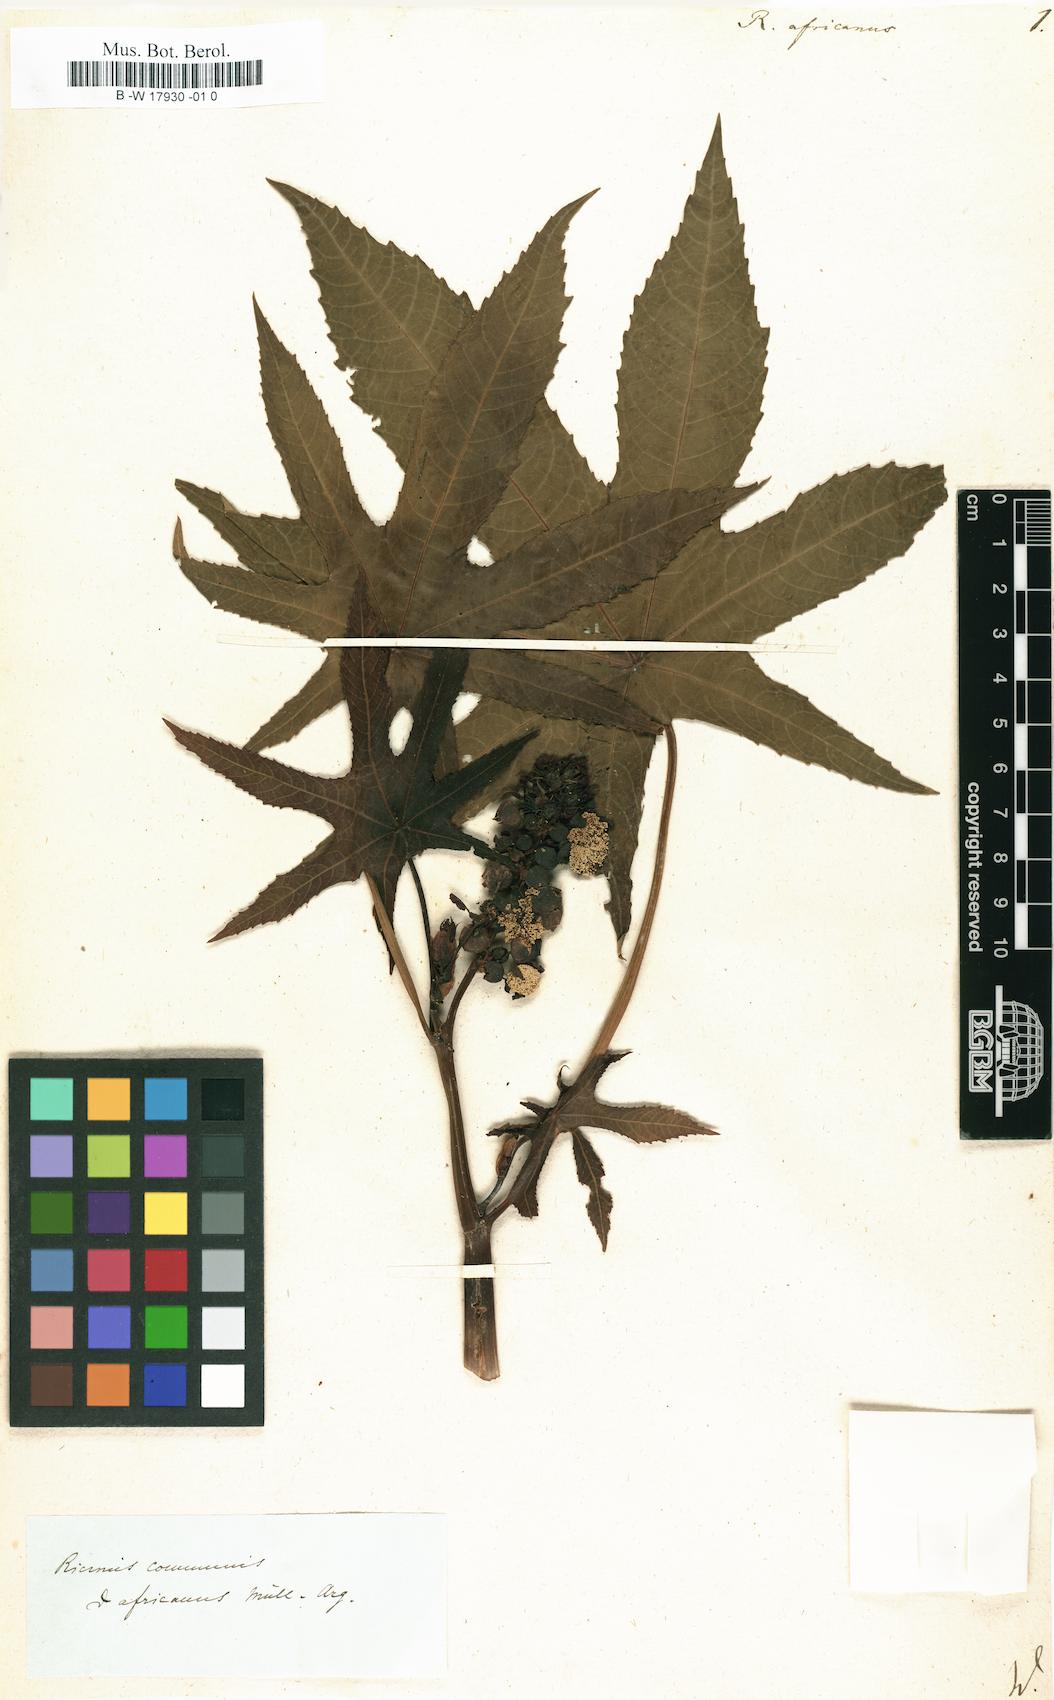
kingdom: Plantae
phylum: Tracheophyta
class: Magnoliopsida
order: Malpighiales
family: Euphorbiaceae
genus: Ricinus
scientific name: Ricinus communis
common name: Castor-oil-plant
